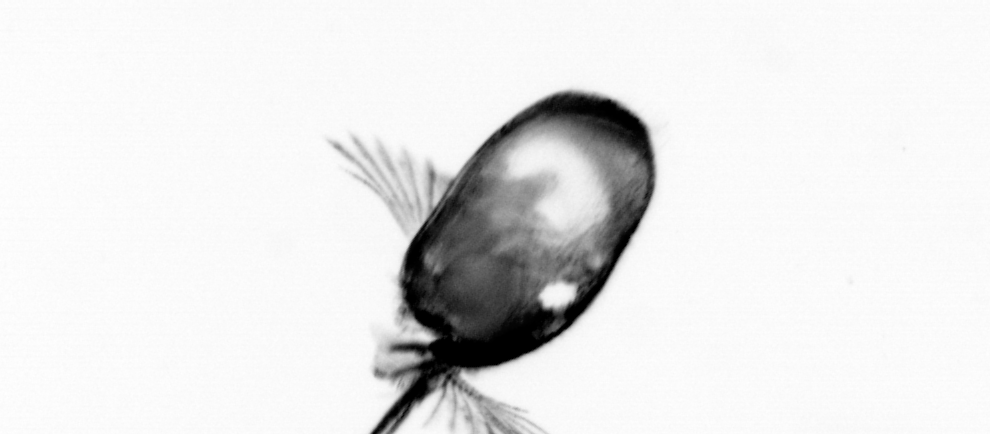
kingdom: Animalia
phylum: Chordata
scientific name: Chordata
